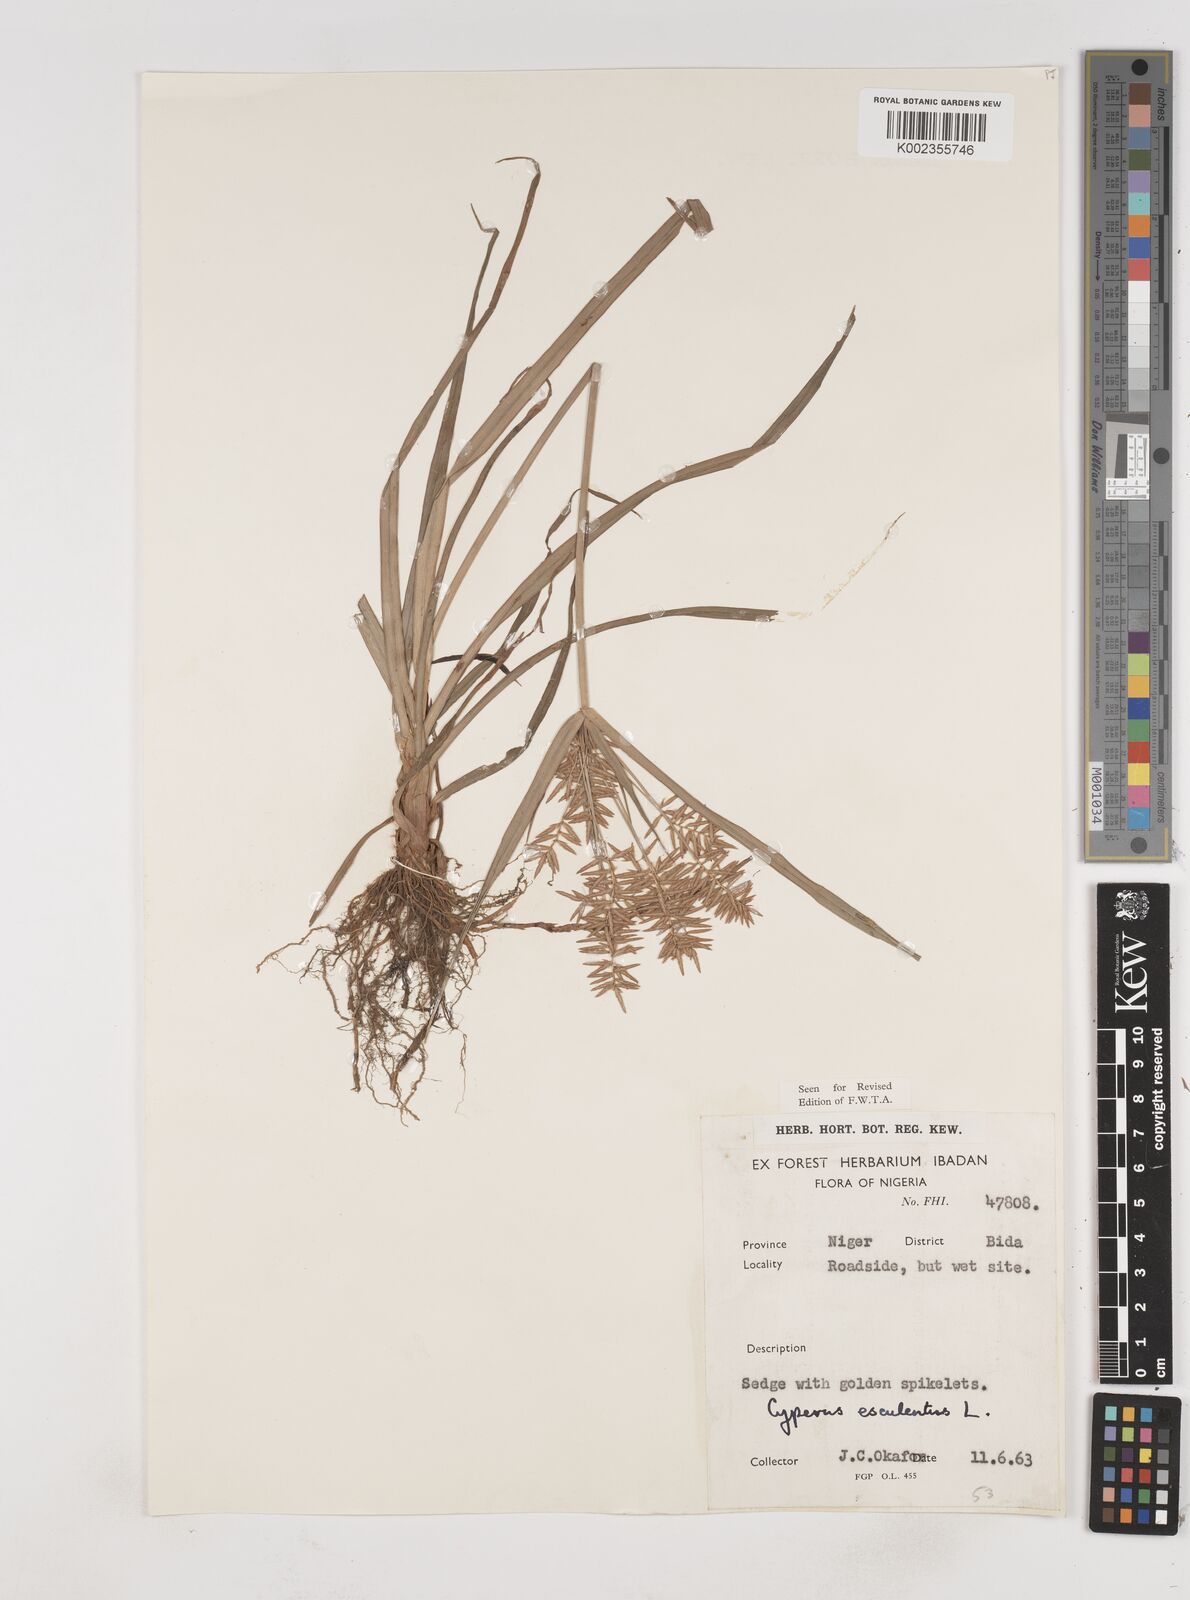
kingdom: Plantae
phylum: Tracheophyta
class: Liliopsida
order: Poales
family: Cyperaceae
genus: Cyperus
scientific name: Cyperus esculentus
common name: Yellow nutsedge
